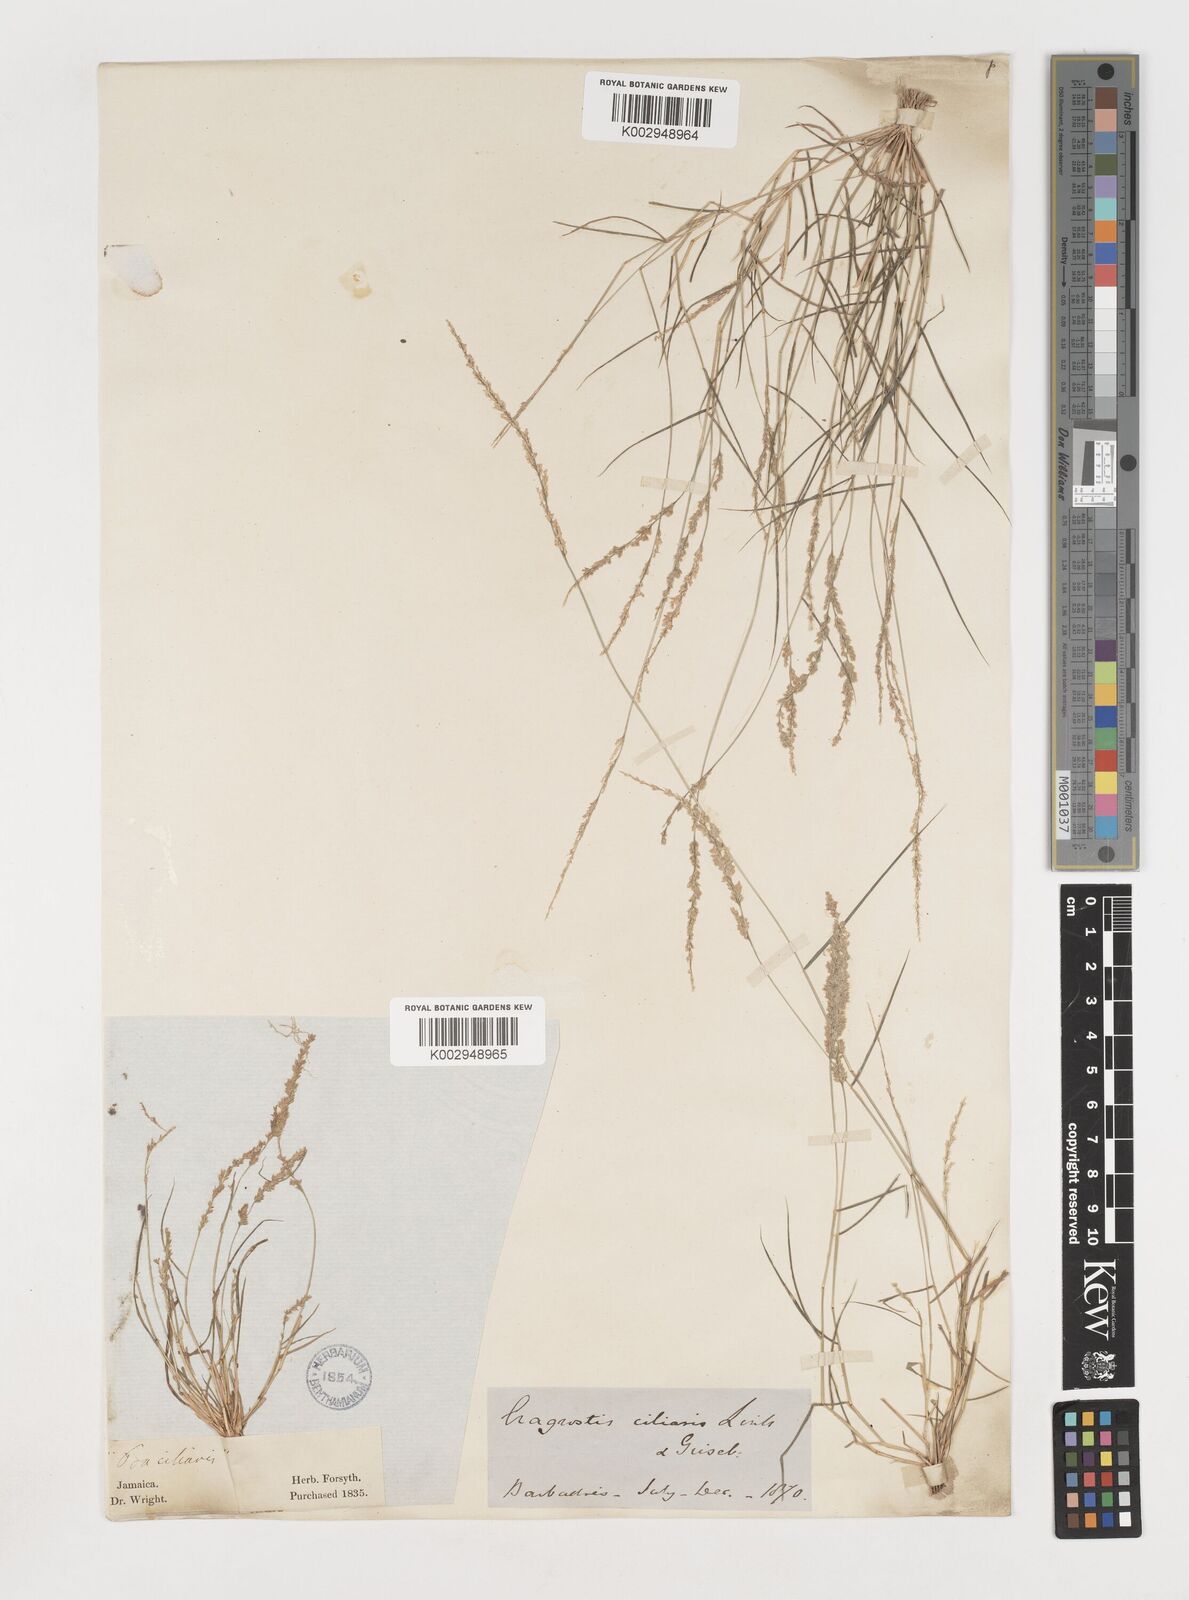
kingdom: Plantae
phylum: Tracheophyta
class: Liliopsida
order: Poales
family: Poaceae
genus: Eragrostis
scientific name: Eragrostis ciliaris
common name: Gophertail lovegrass
